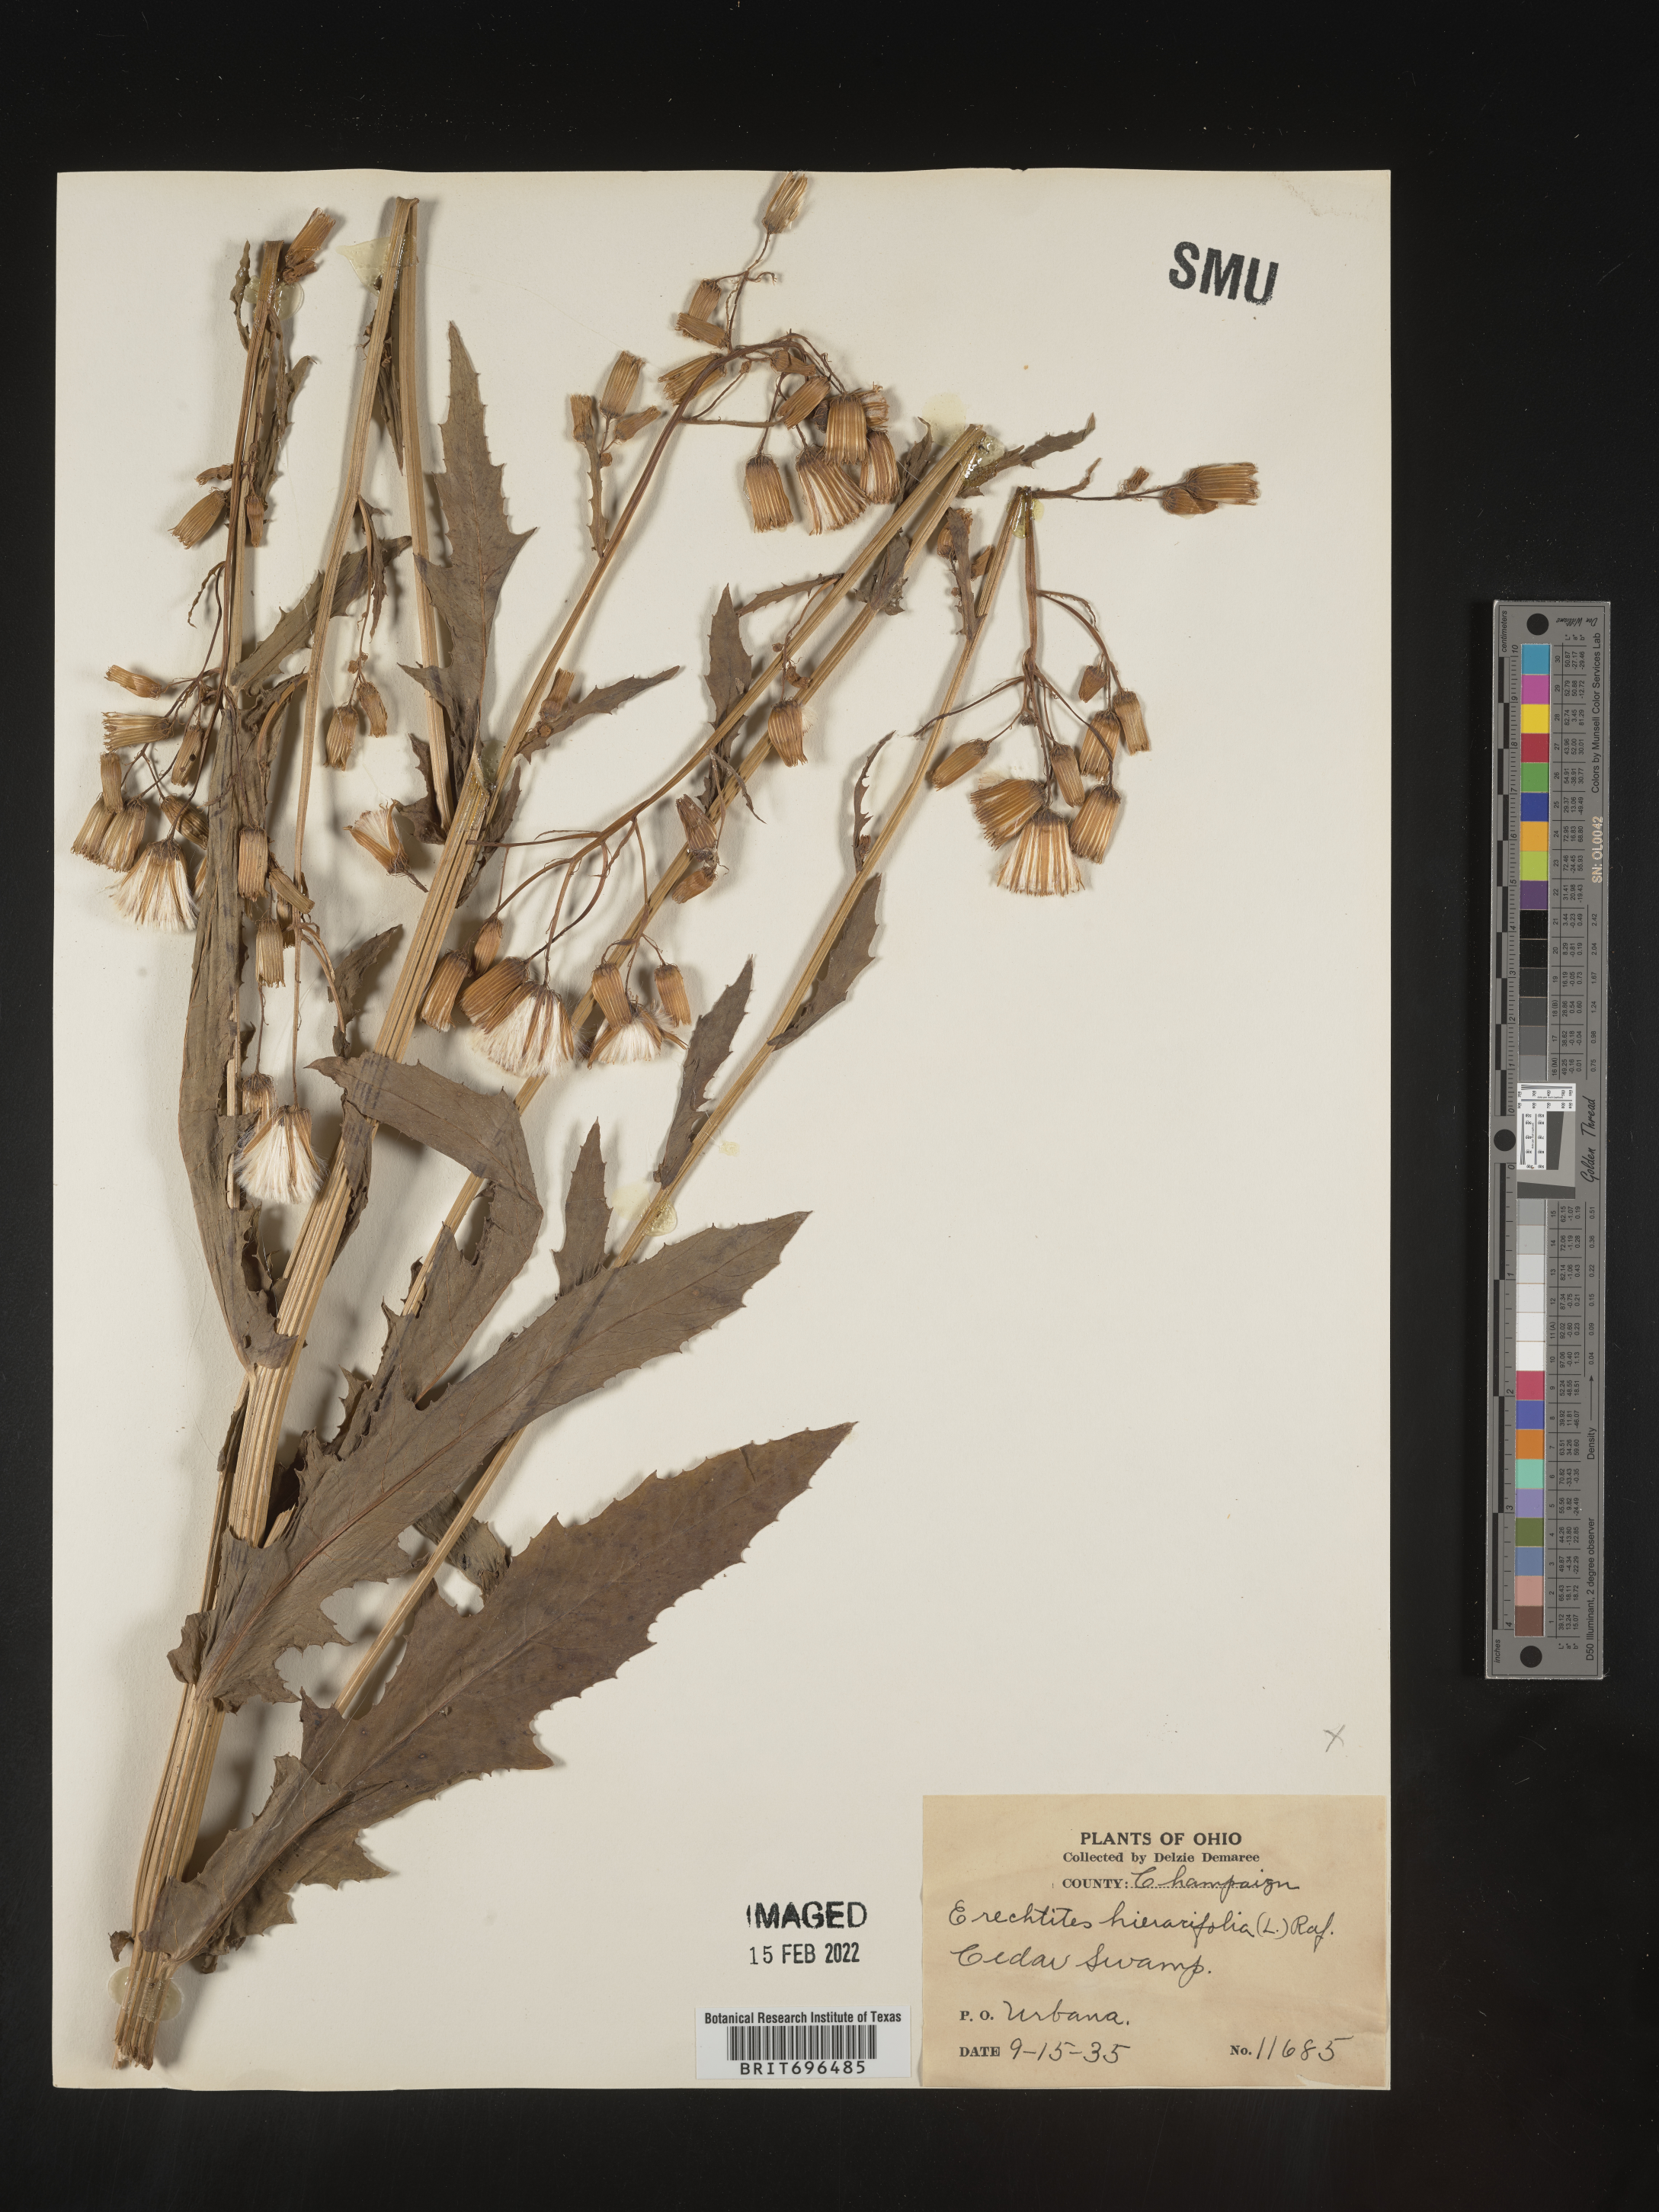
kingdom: Plantae
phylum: Tracheophyta
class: Magnoliopsida
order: Asterales
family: Asteraceae
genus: Erechtites
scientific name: Erechtites hieraciifolius
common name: American burnweed
